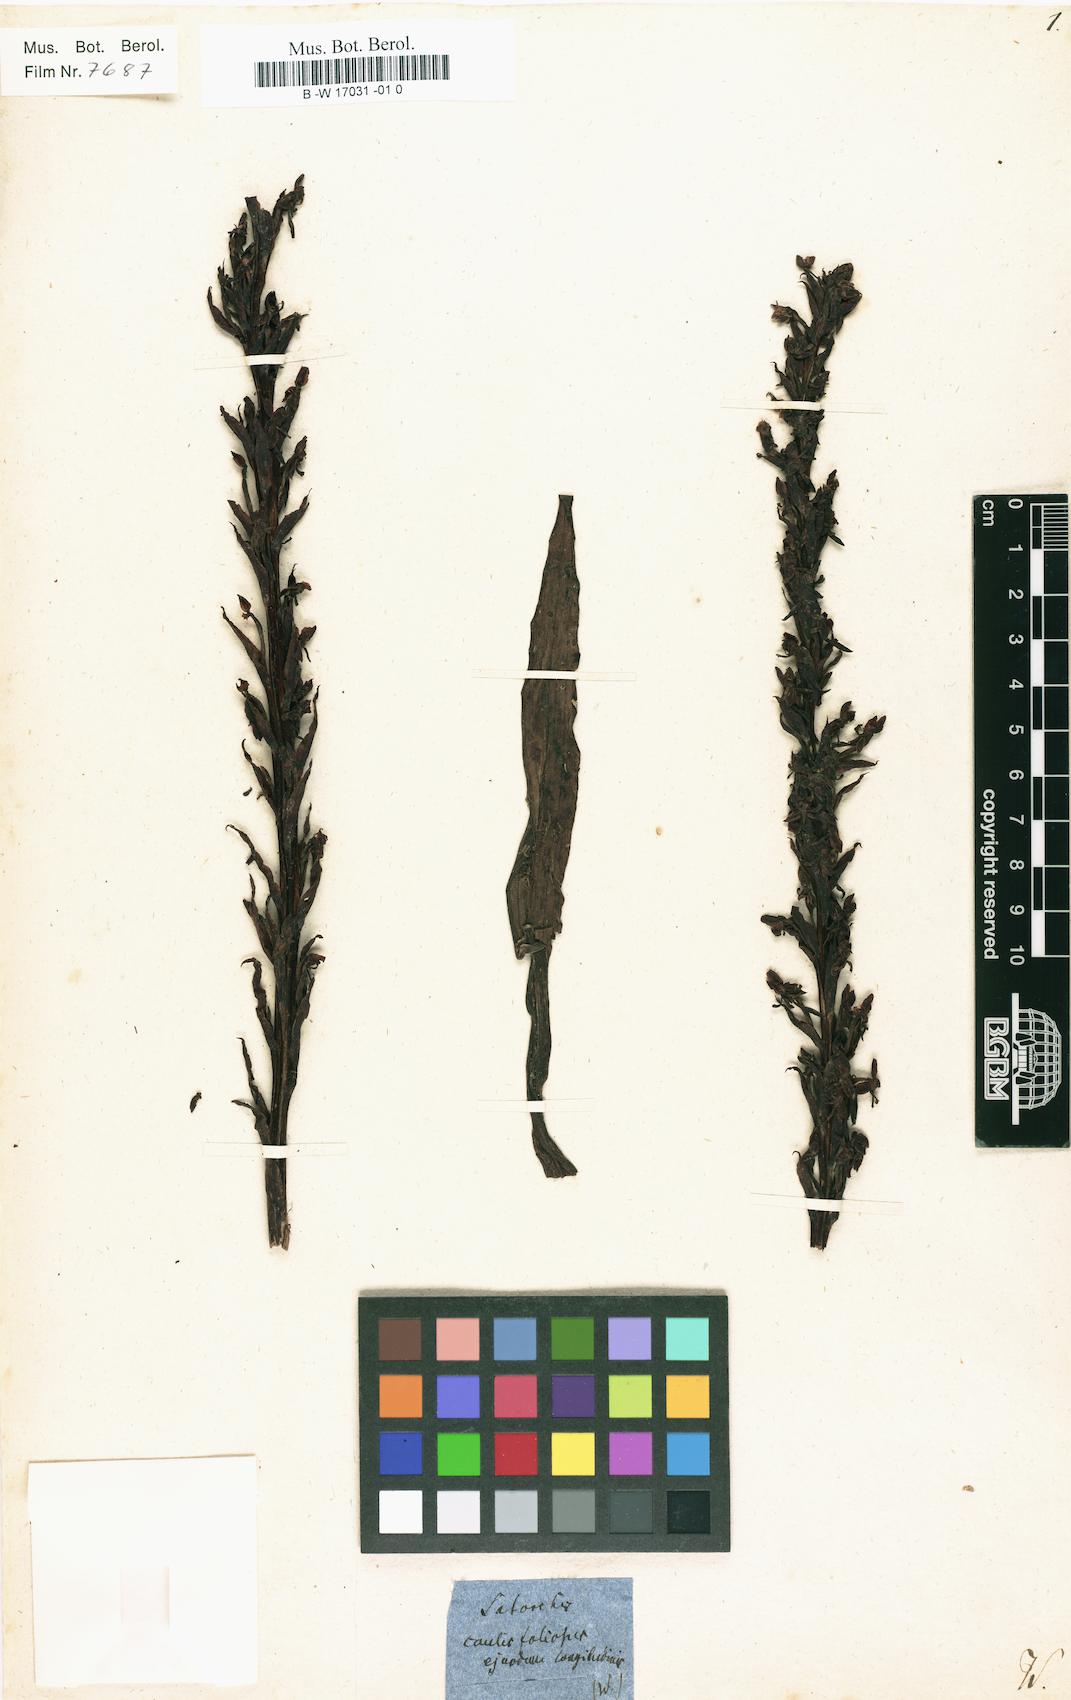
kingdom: Plantae
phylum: Tracheophyta
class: Liliopsida
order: Asparagales
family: Orchidaceae
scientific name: Orchidaceae
